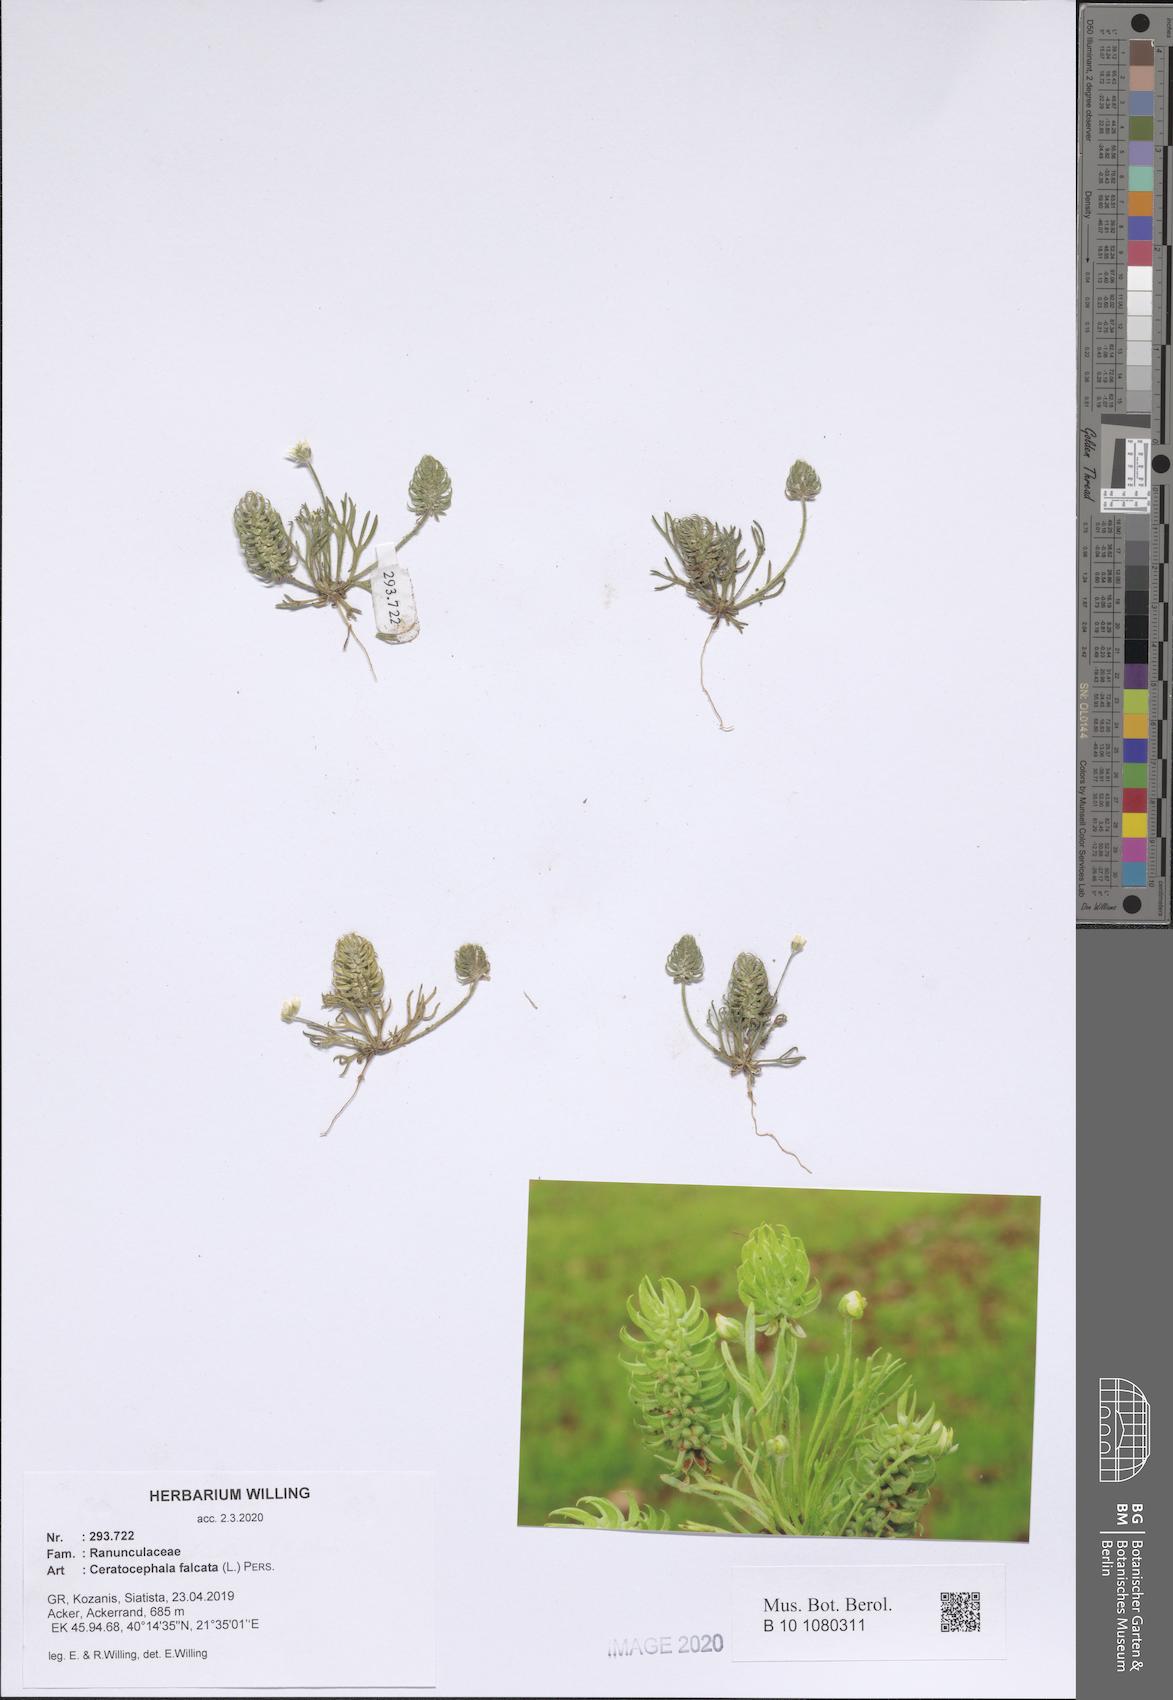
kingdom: Plantae
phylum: Tracheophyta
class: Magnoliopsida
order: Ranunculales
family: Ranunculaceae
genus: Ceratocephala
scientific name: Ceratocephala falcata
